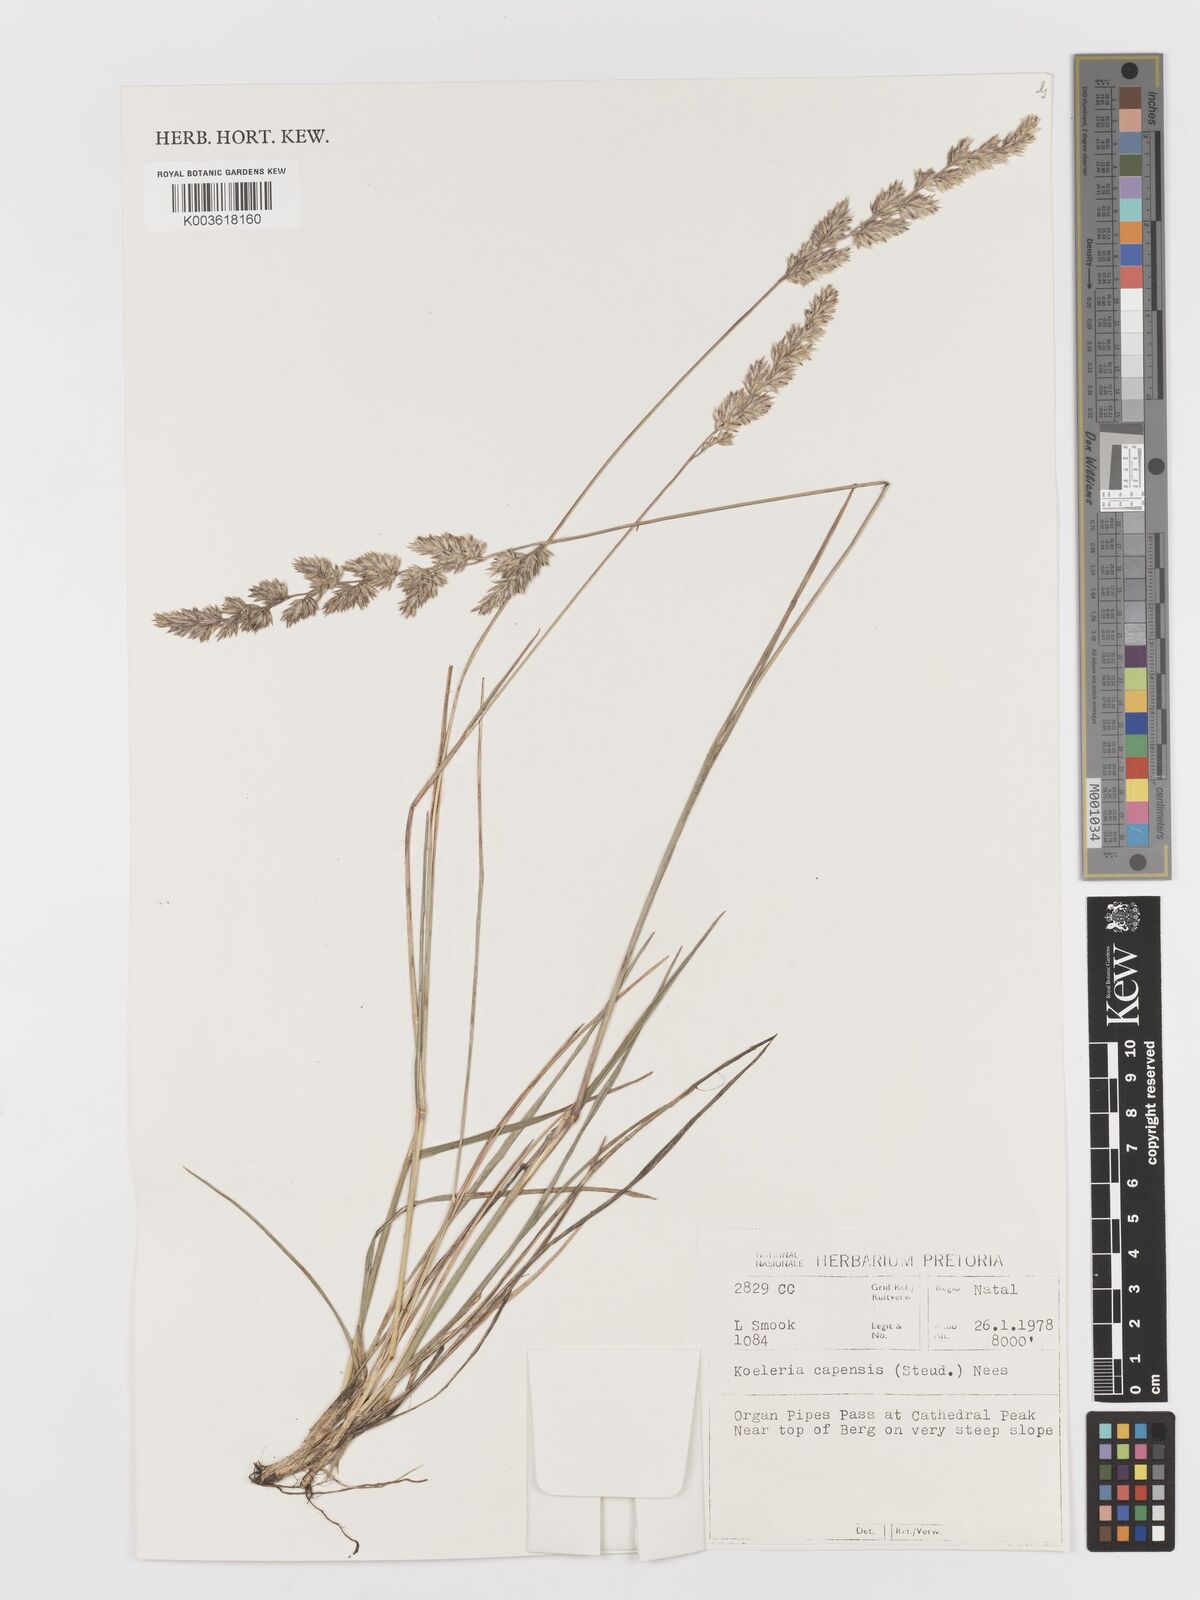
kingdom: Plantae
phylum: Tracheophyta
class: Liliopsida
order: Poales
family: Poaceae
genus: Koeleria
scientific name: Koeleria capensis
